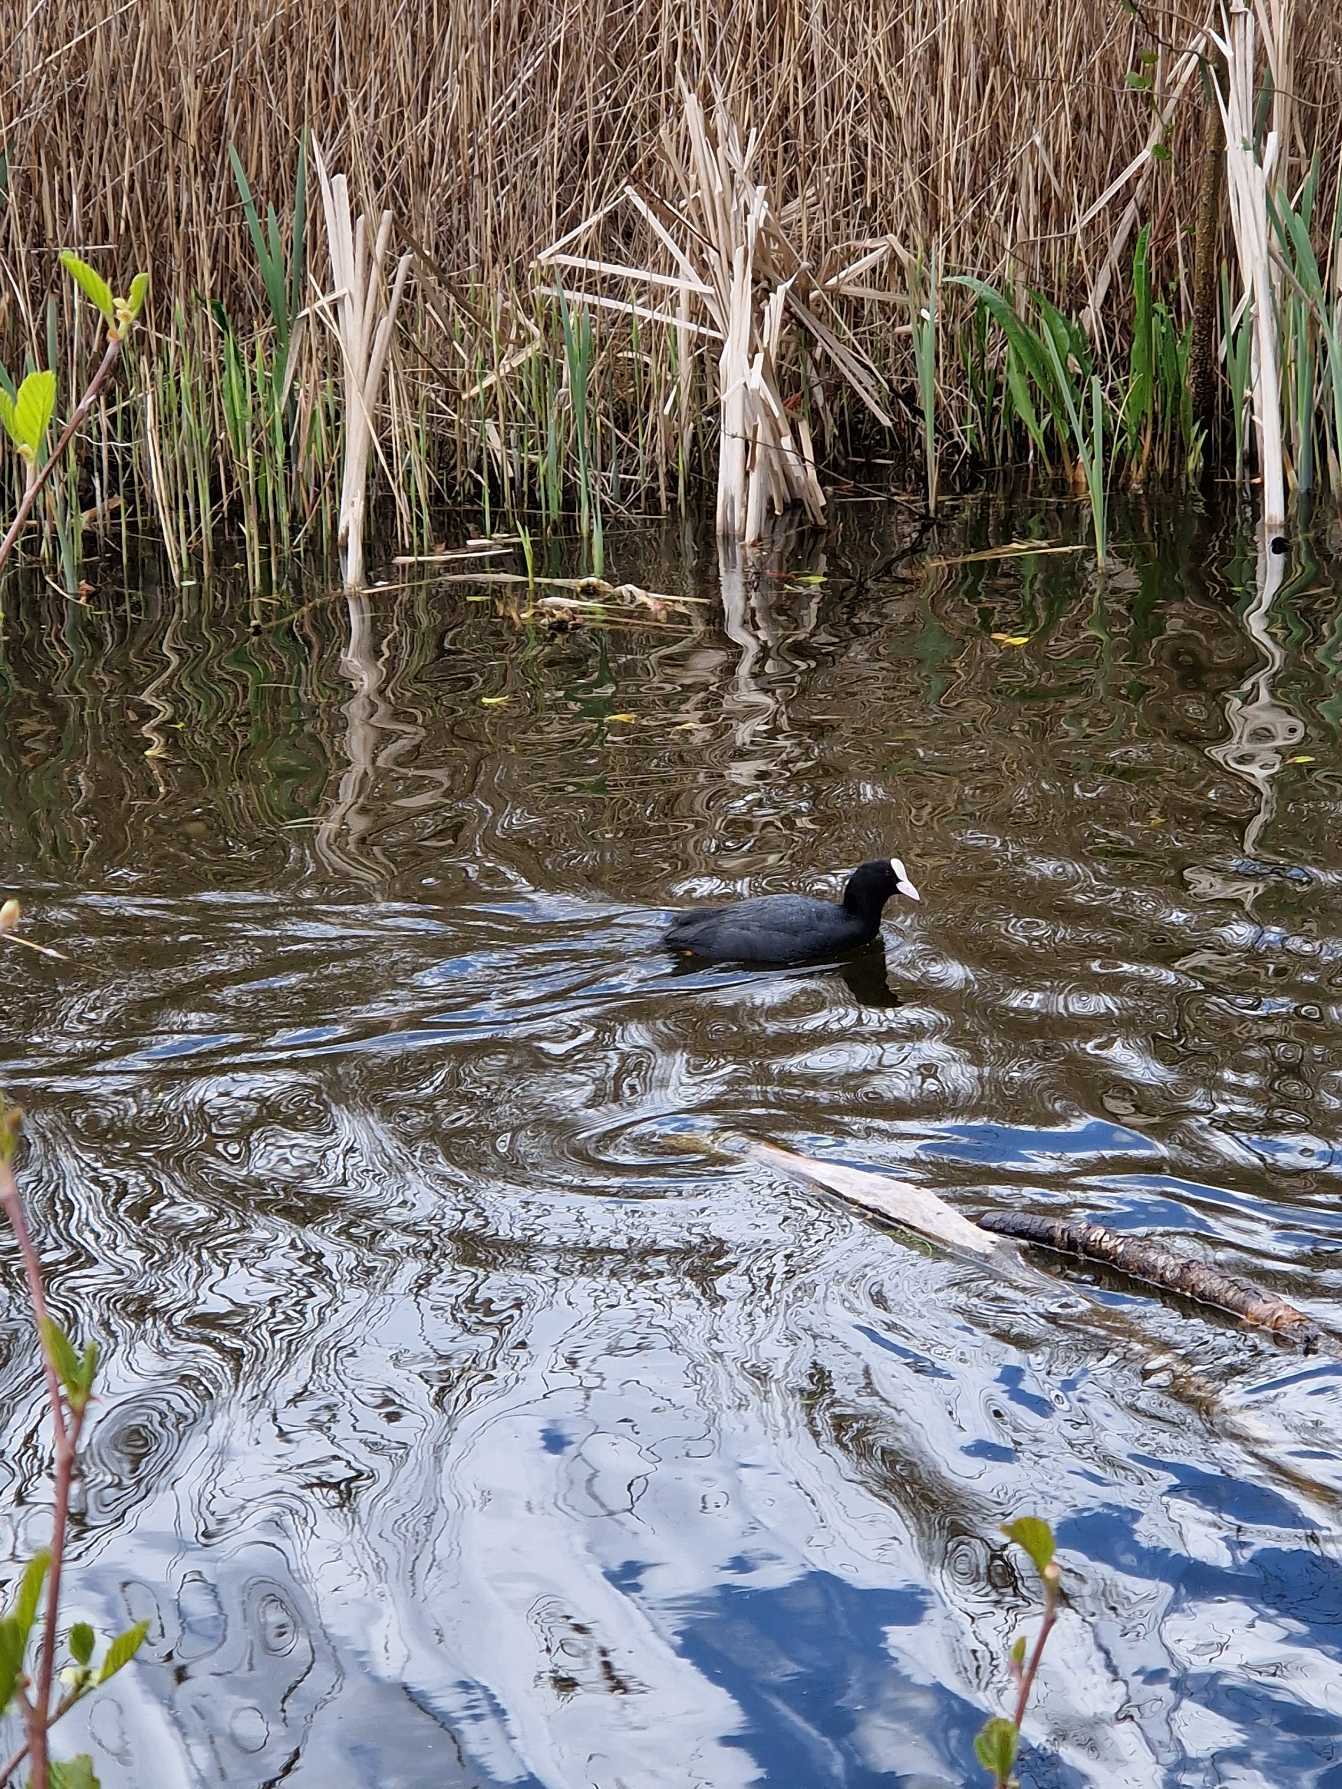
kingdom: Animalia
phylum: Chordata
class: Aves
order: Gruiformes
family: Rallidae
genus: Fulica
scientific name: Fulica atra
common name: Blishøne
